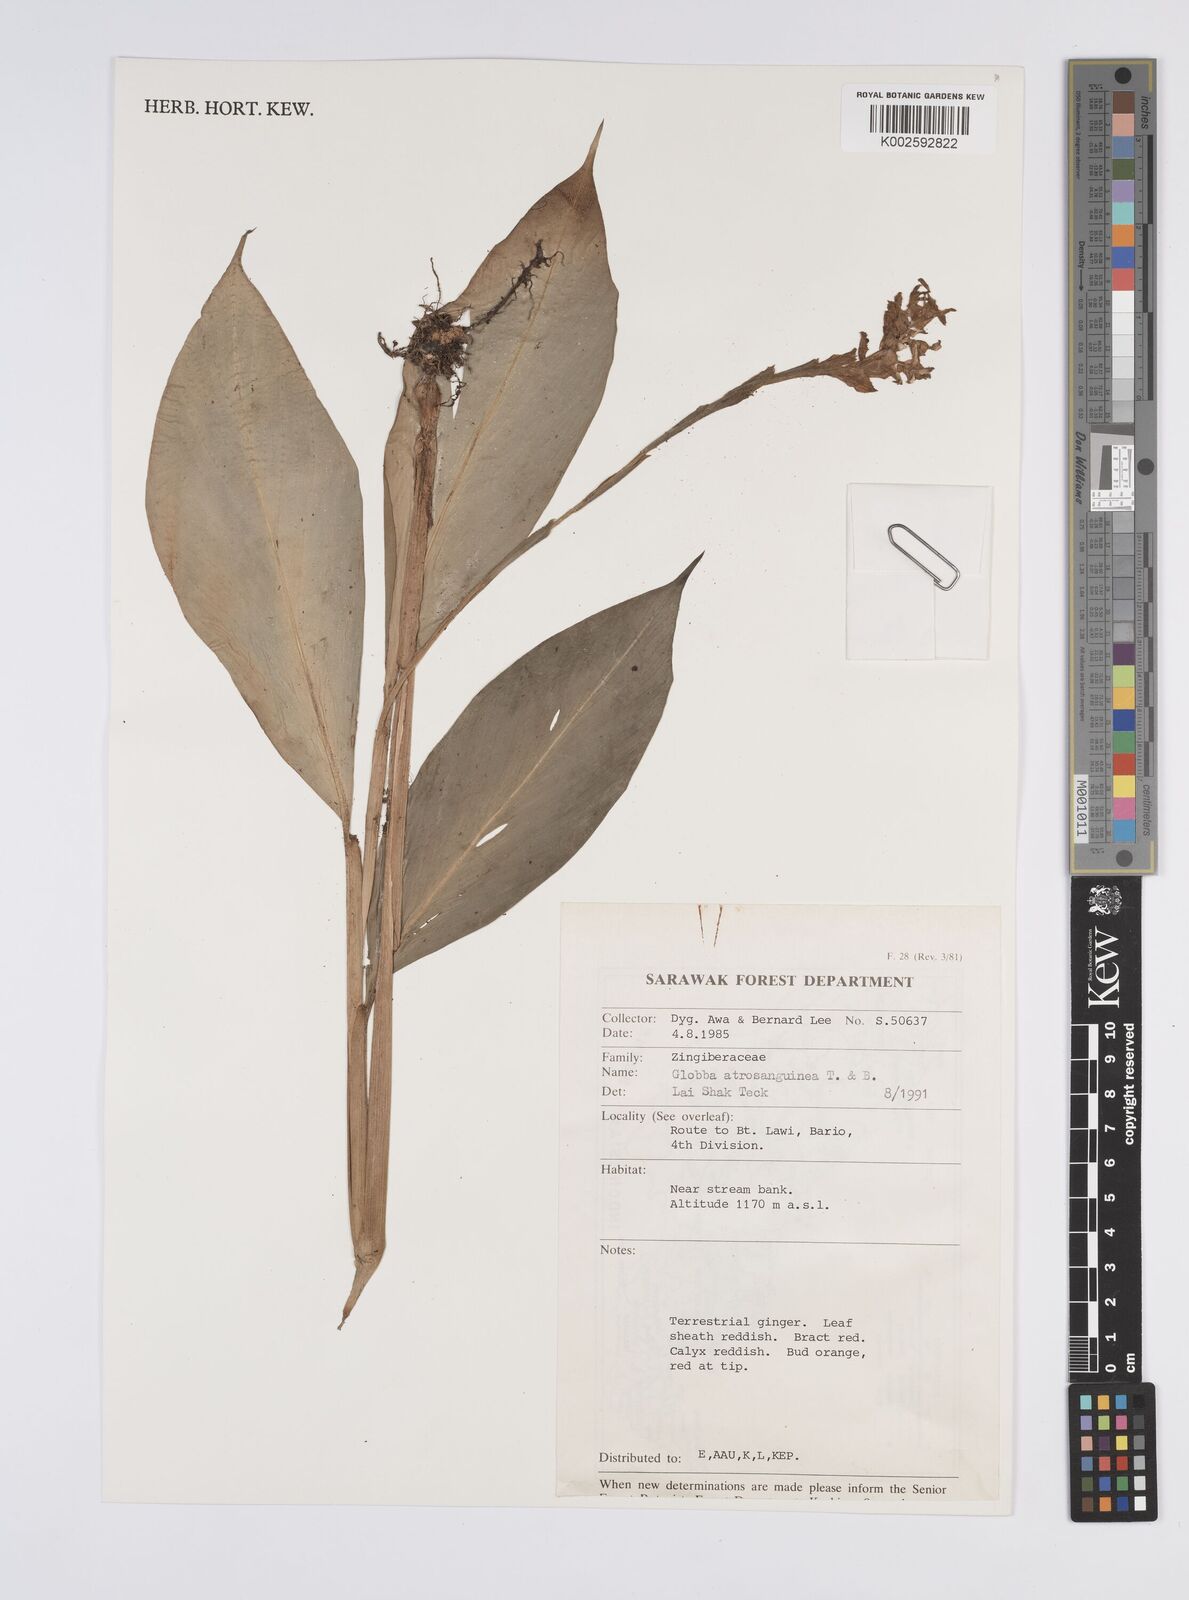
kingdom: Plantae
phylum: Tracheophyta
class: Liliopsida
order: Zingiberales
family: Zingiberaceae
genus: Globba
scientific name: Globba atrosanguinea
